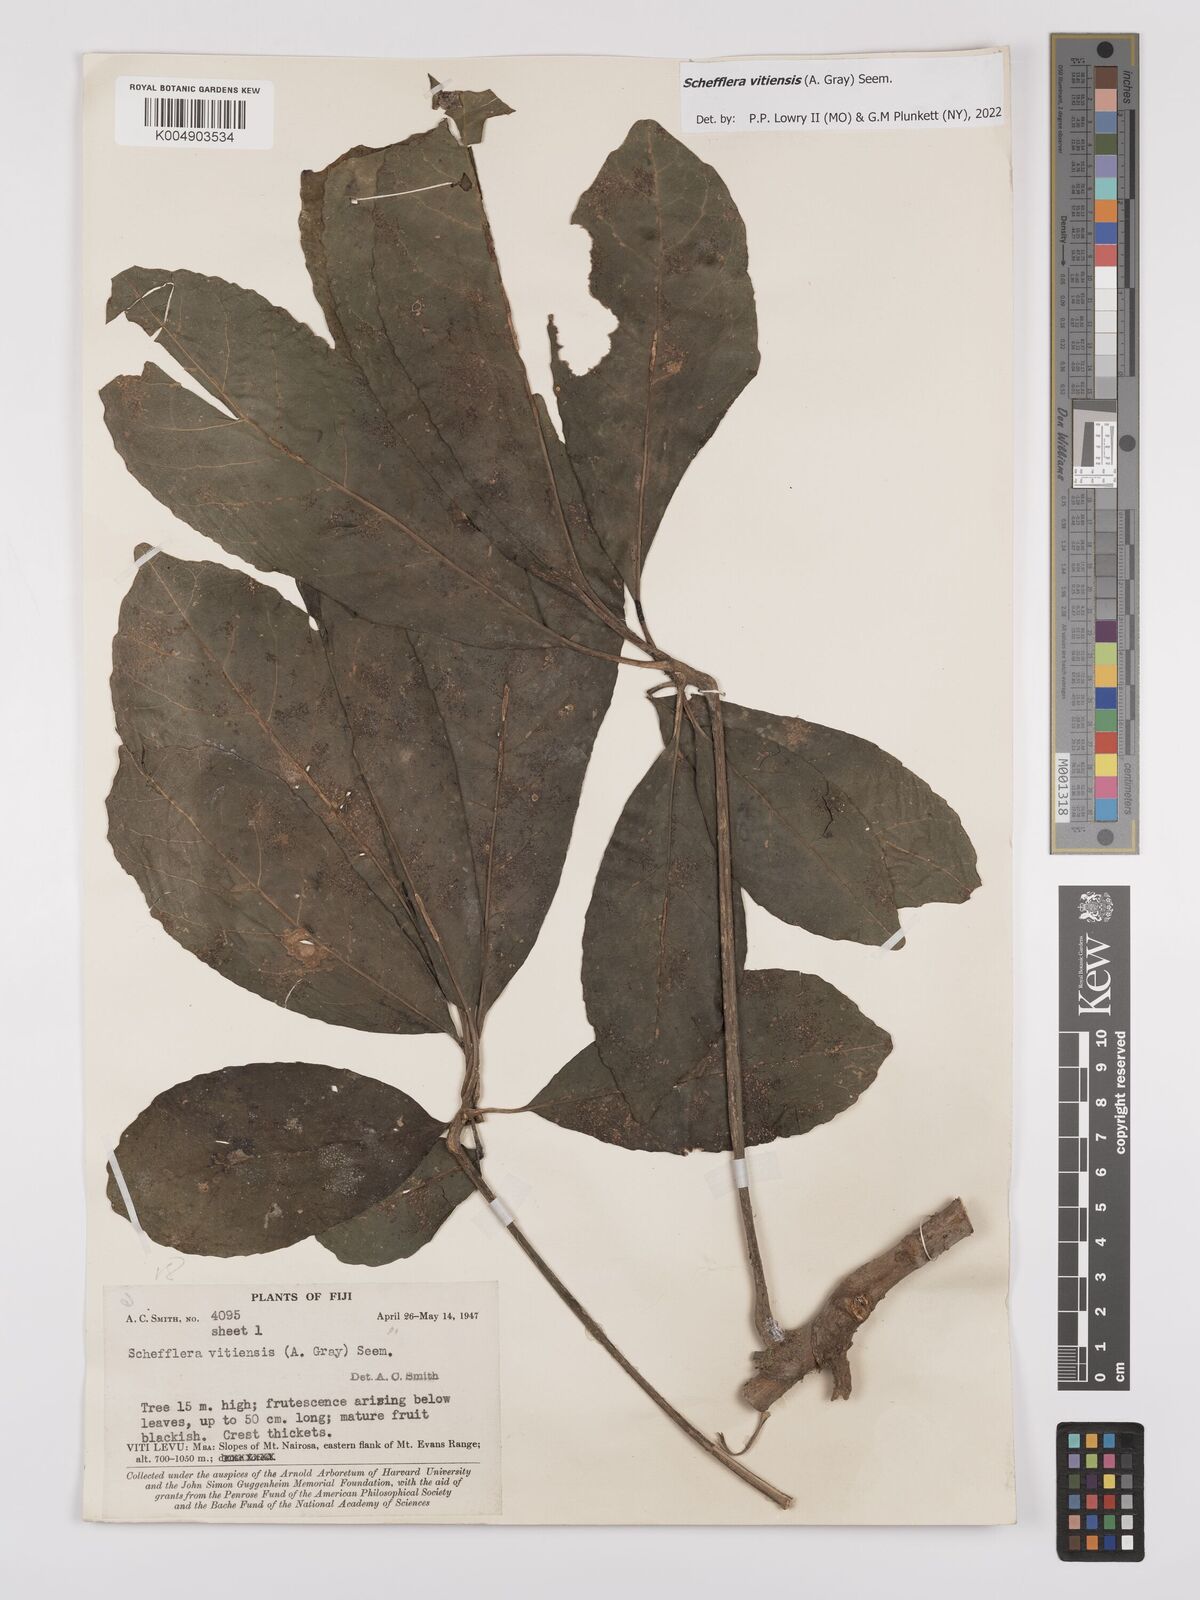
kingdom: Plantae
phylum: Tracheophyta
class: Magnoliopsida
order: Apiales
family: Araliaceae
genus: Schefflera
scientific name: Schefflera vitiensis
